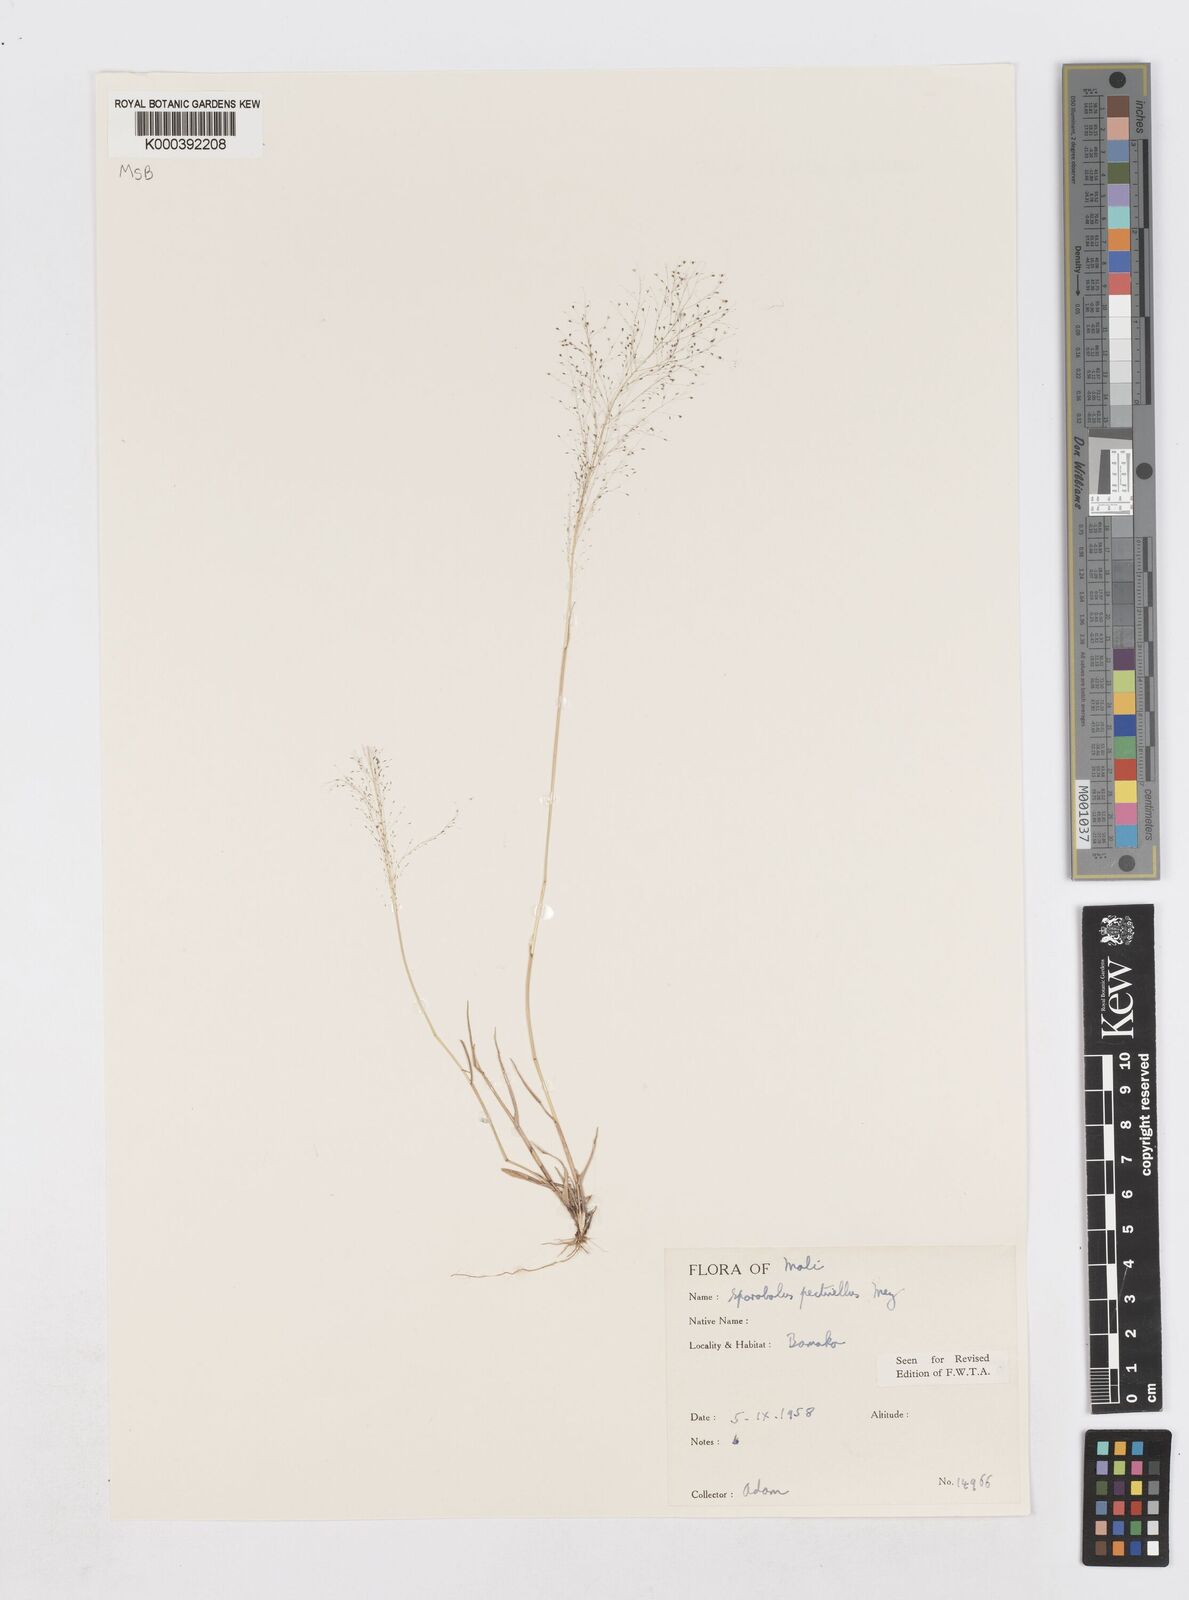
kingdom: Plantae
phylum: Tracheophyta
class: Liliopsida
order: Poales
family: Poaceae
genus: Sporobolus
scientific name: Sporobolus pectinellus
